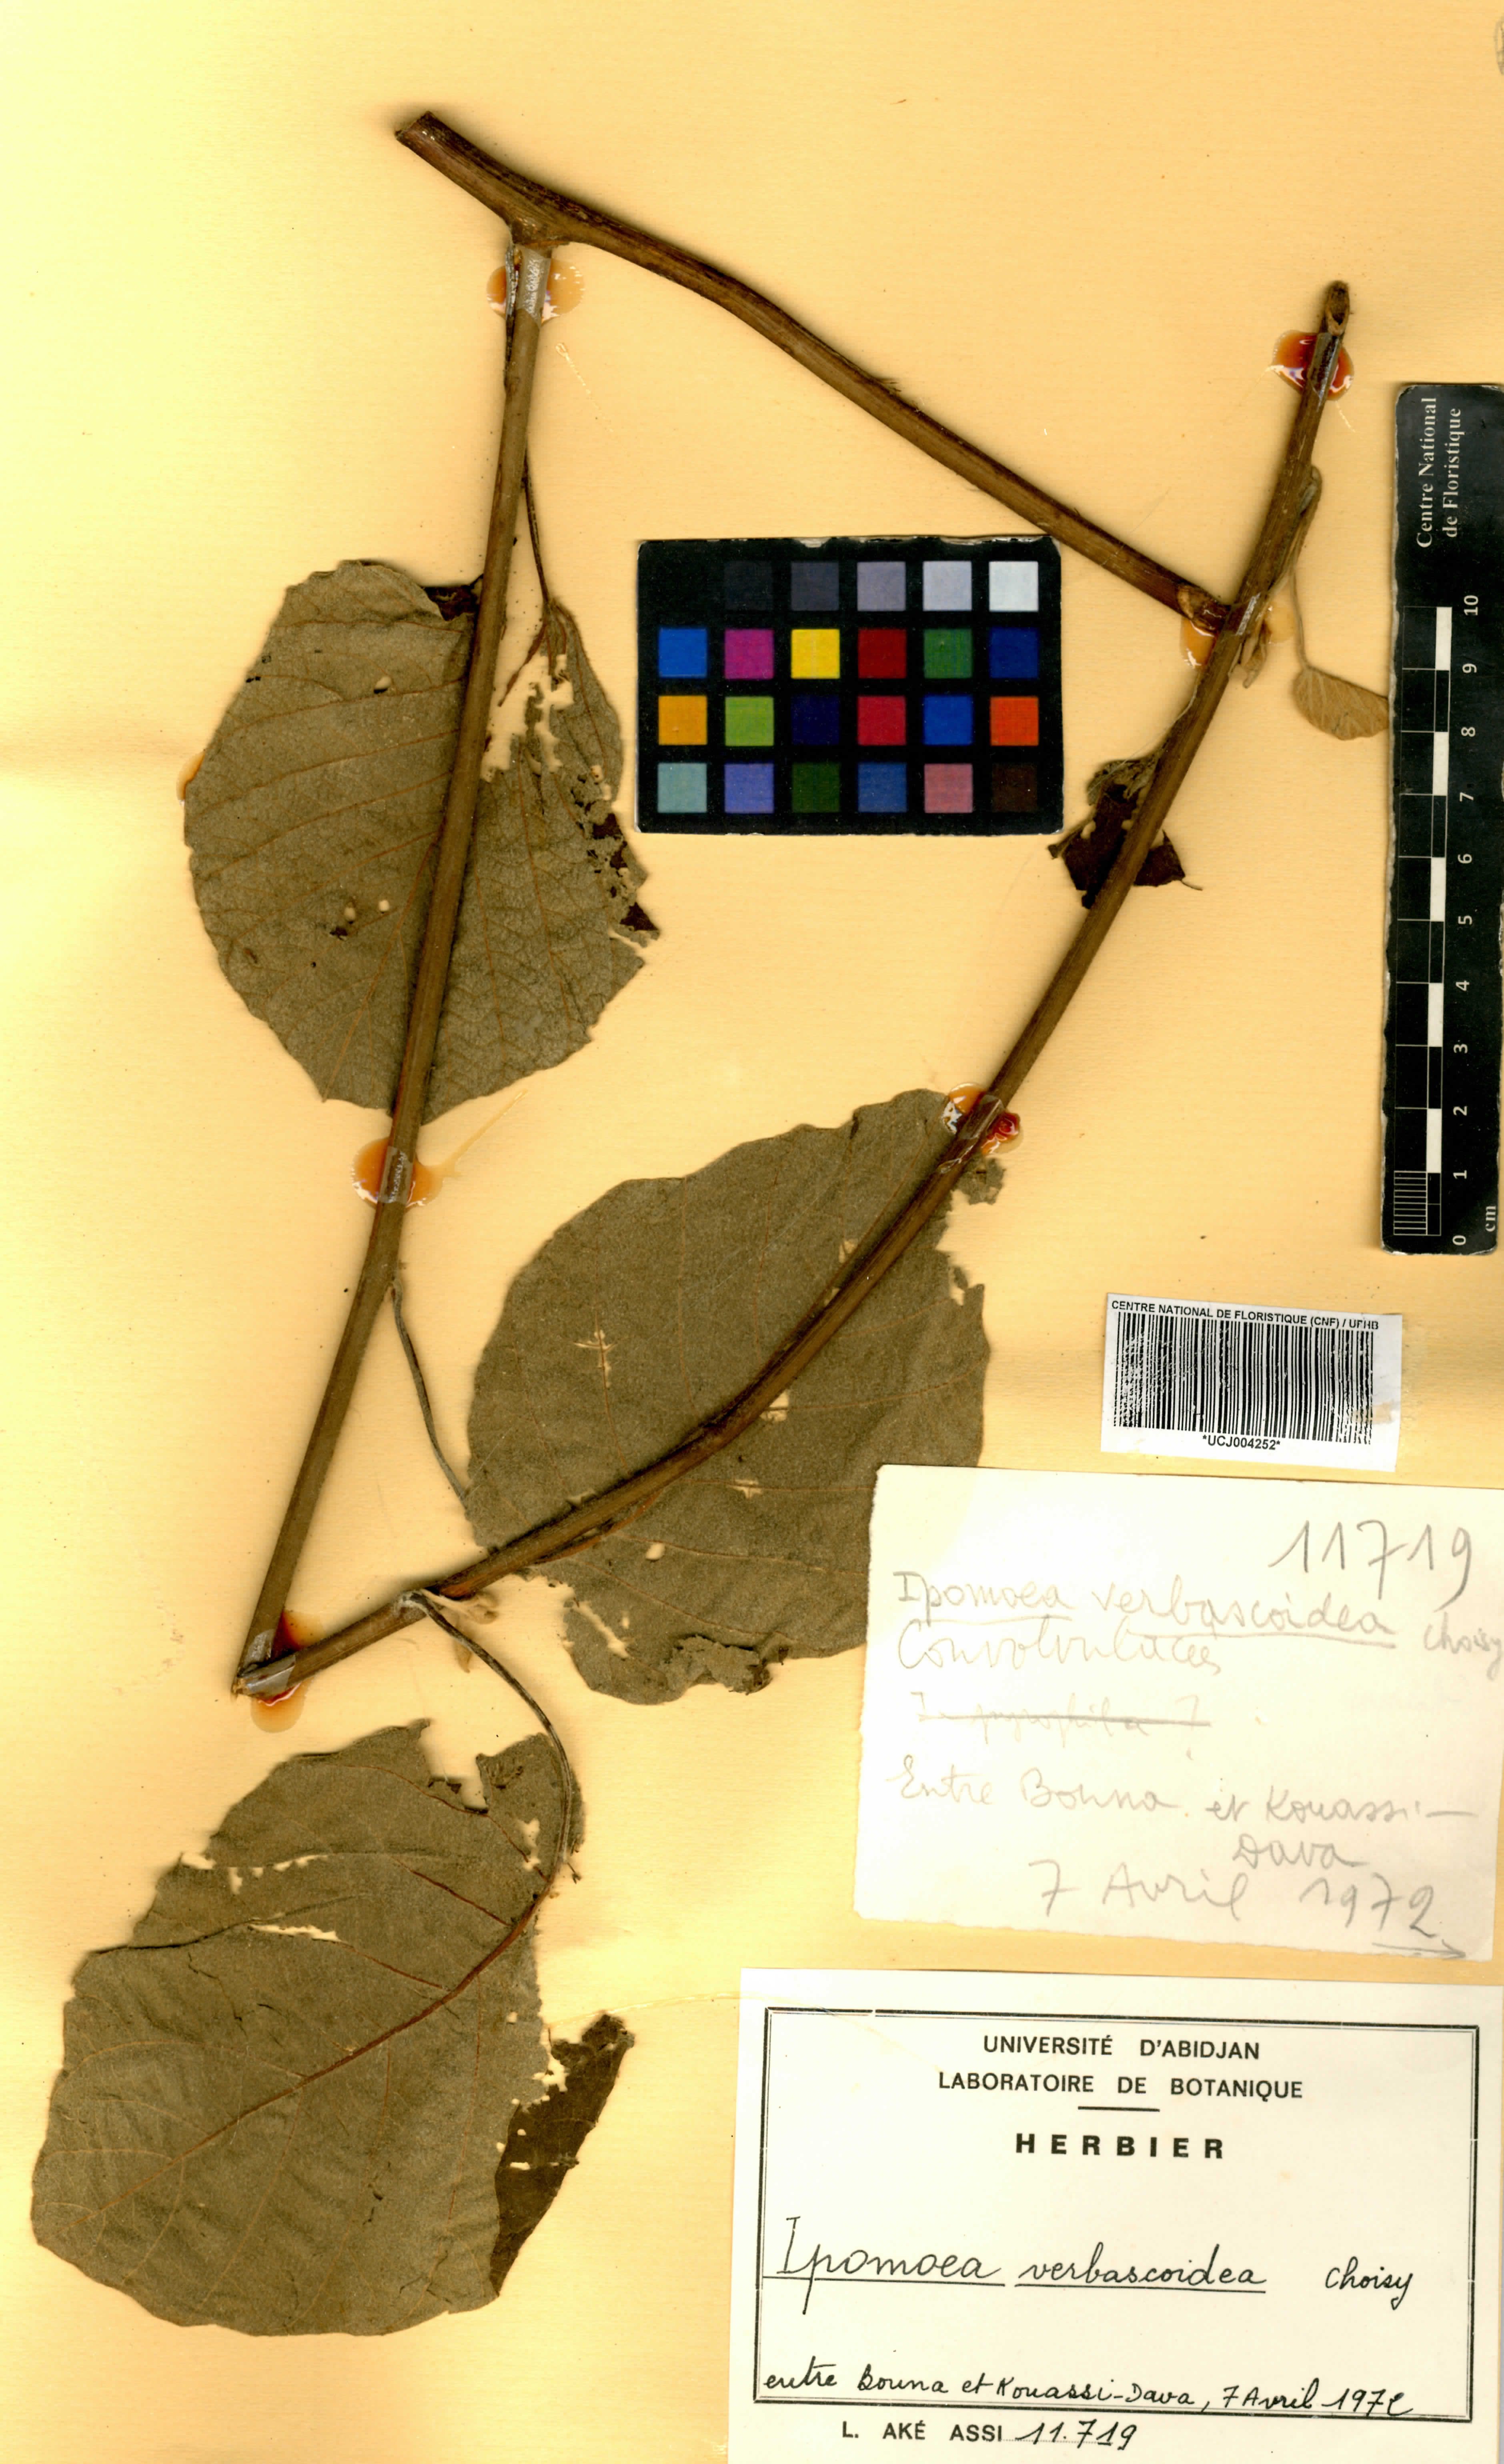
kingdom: Plantae
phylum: Tracheophyta
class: Magnoliopsida
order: Solanales
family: Convolvulaceae
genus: Ipomoea
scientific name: Ipomoea verbascoidea
